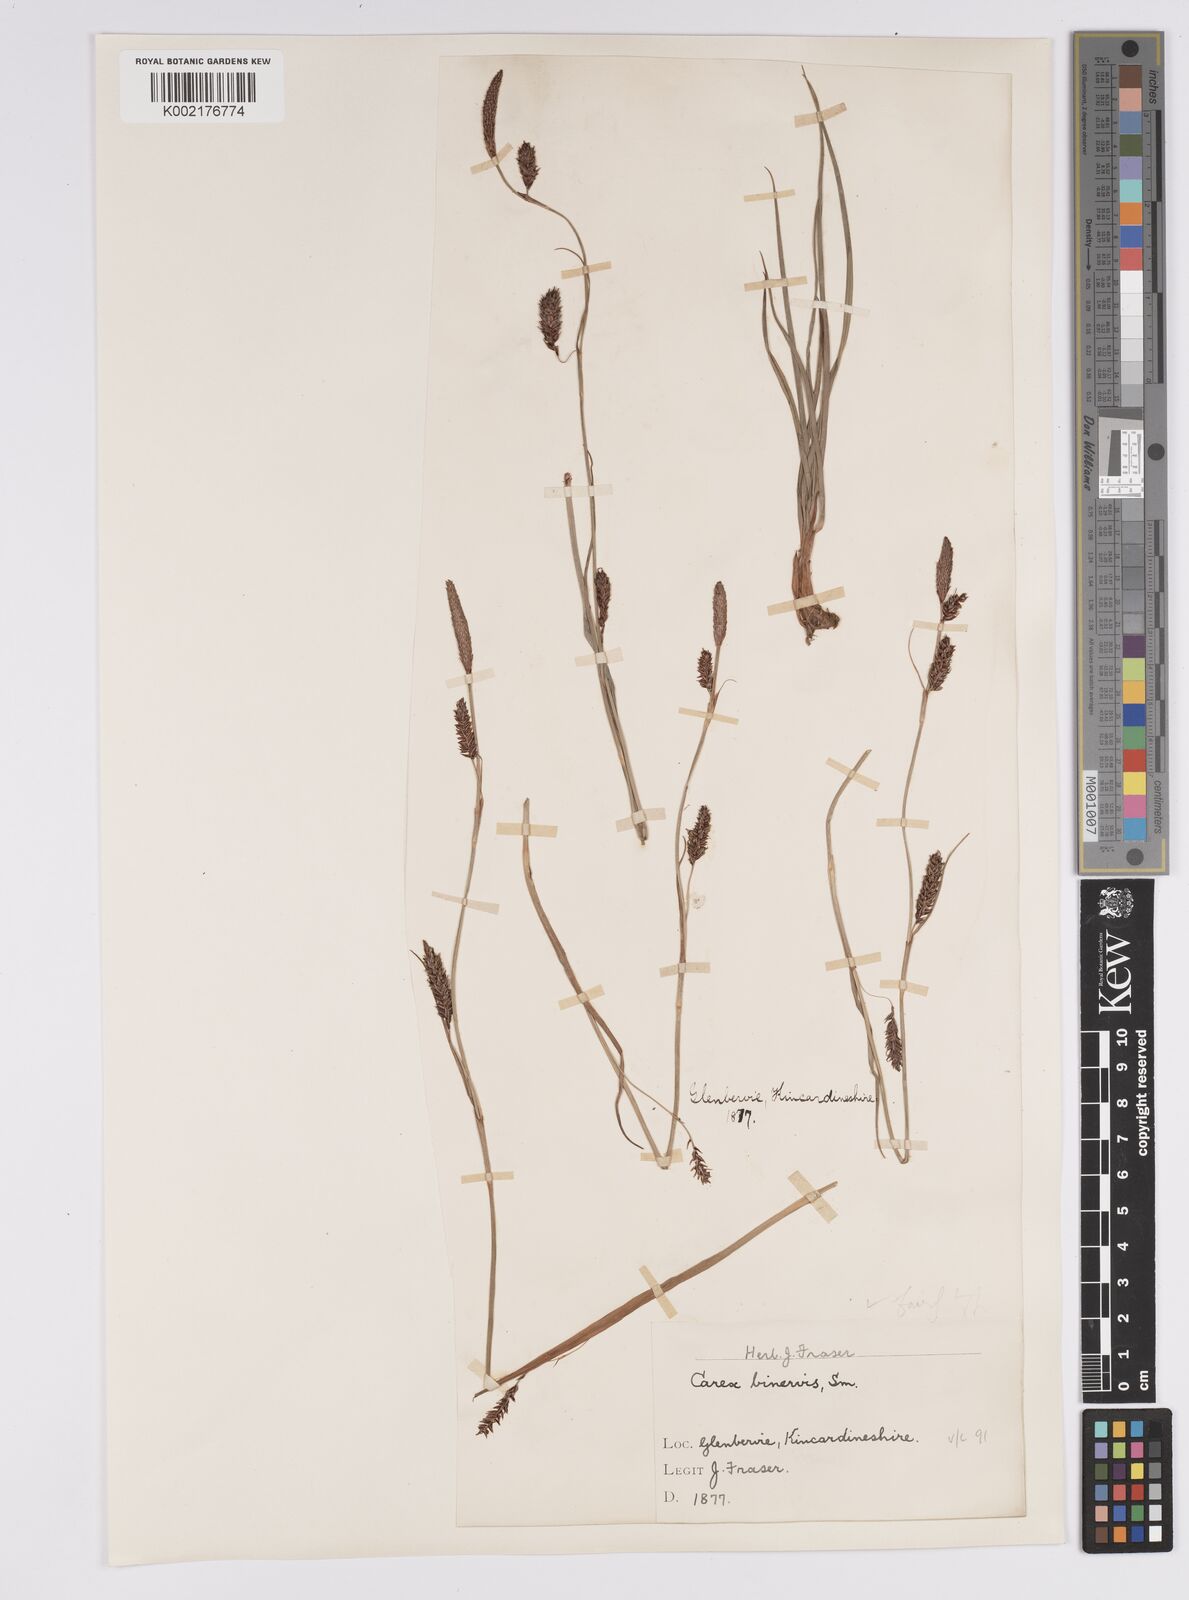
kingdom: Plantae
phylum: Tracheophyta
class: Liliopsida
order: Poales
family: Cyperaceae
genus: Carex
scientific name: Carex binervis
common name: Green-ribbed sedge
